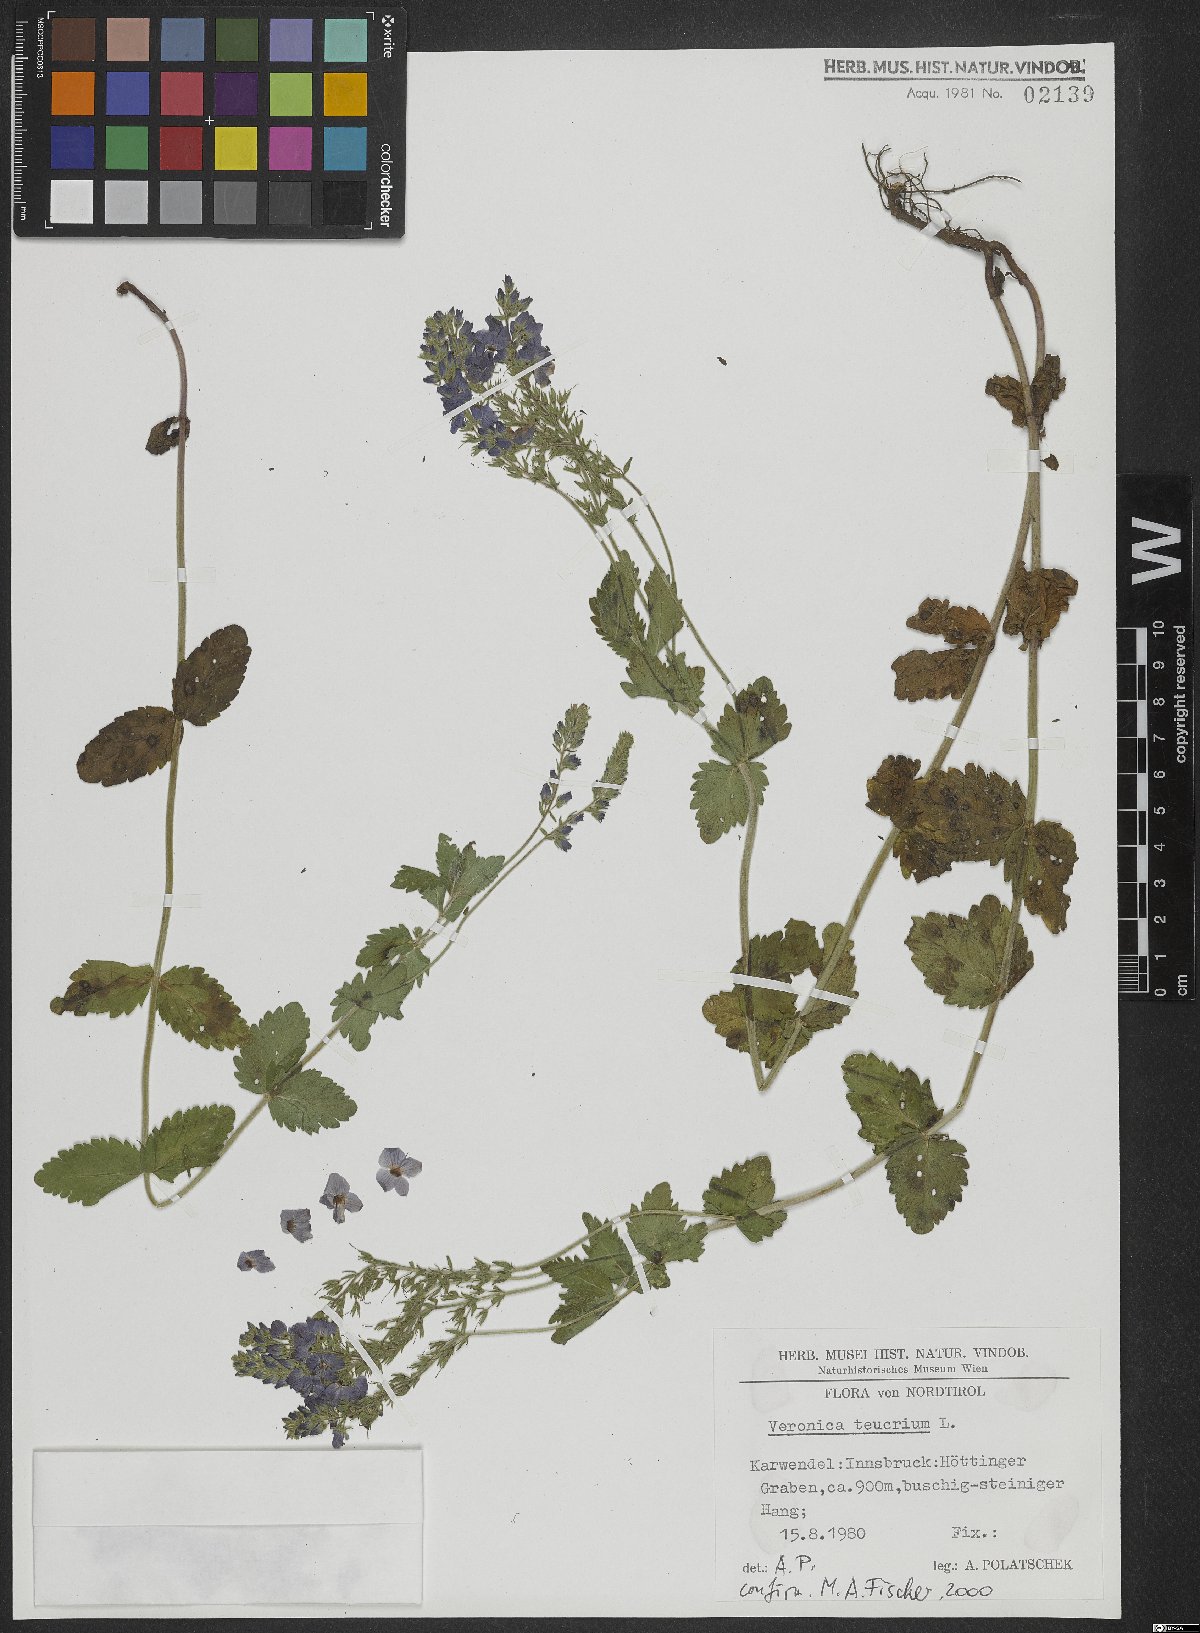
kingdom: Plantae
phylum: Tracheophyta
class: Magnoliopsida
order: Lamiales
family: Plantaginaceae
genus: Veronica
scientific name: Veronica teucrium
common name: Large speedwell
